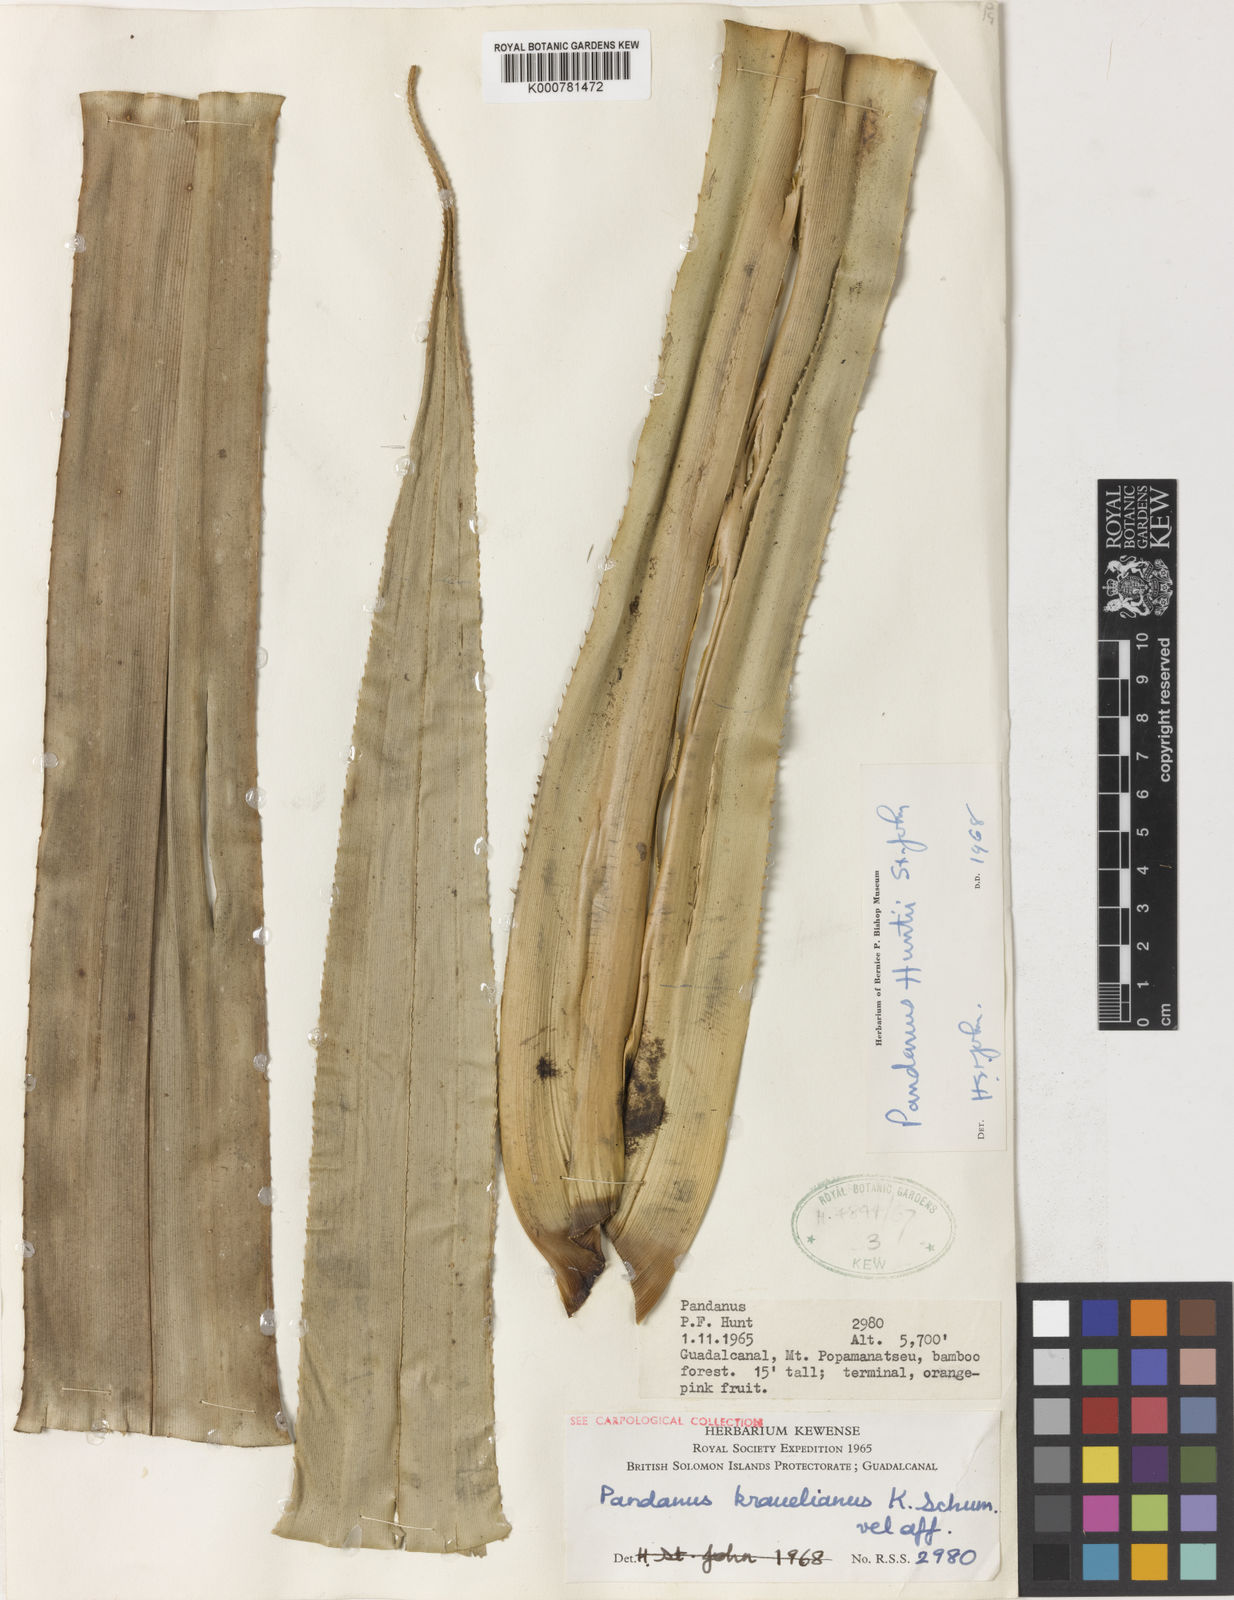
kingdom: Plantae
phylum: Tracheophyta
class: Liliopsida
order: Pandanales
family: Pandanaceae
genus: Pandanus
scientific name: Pandanus
